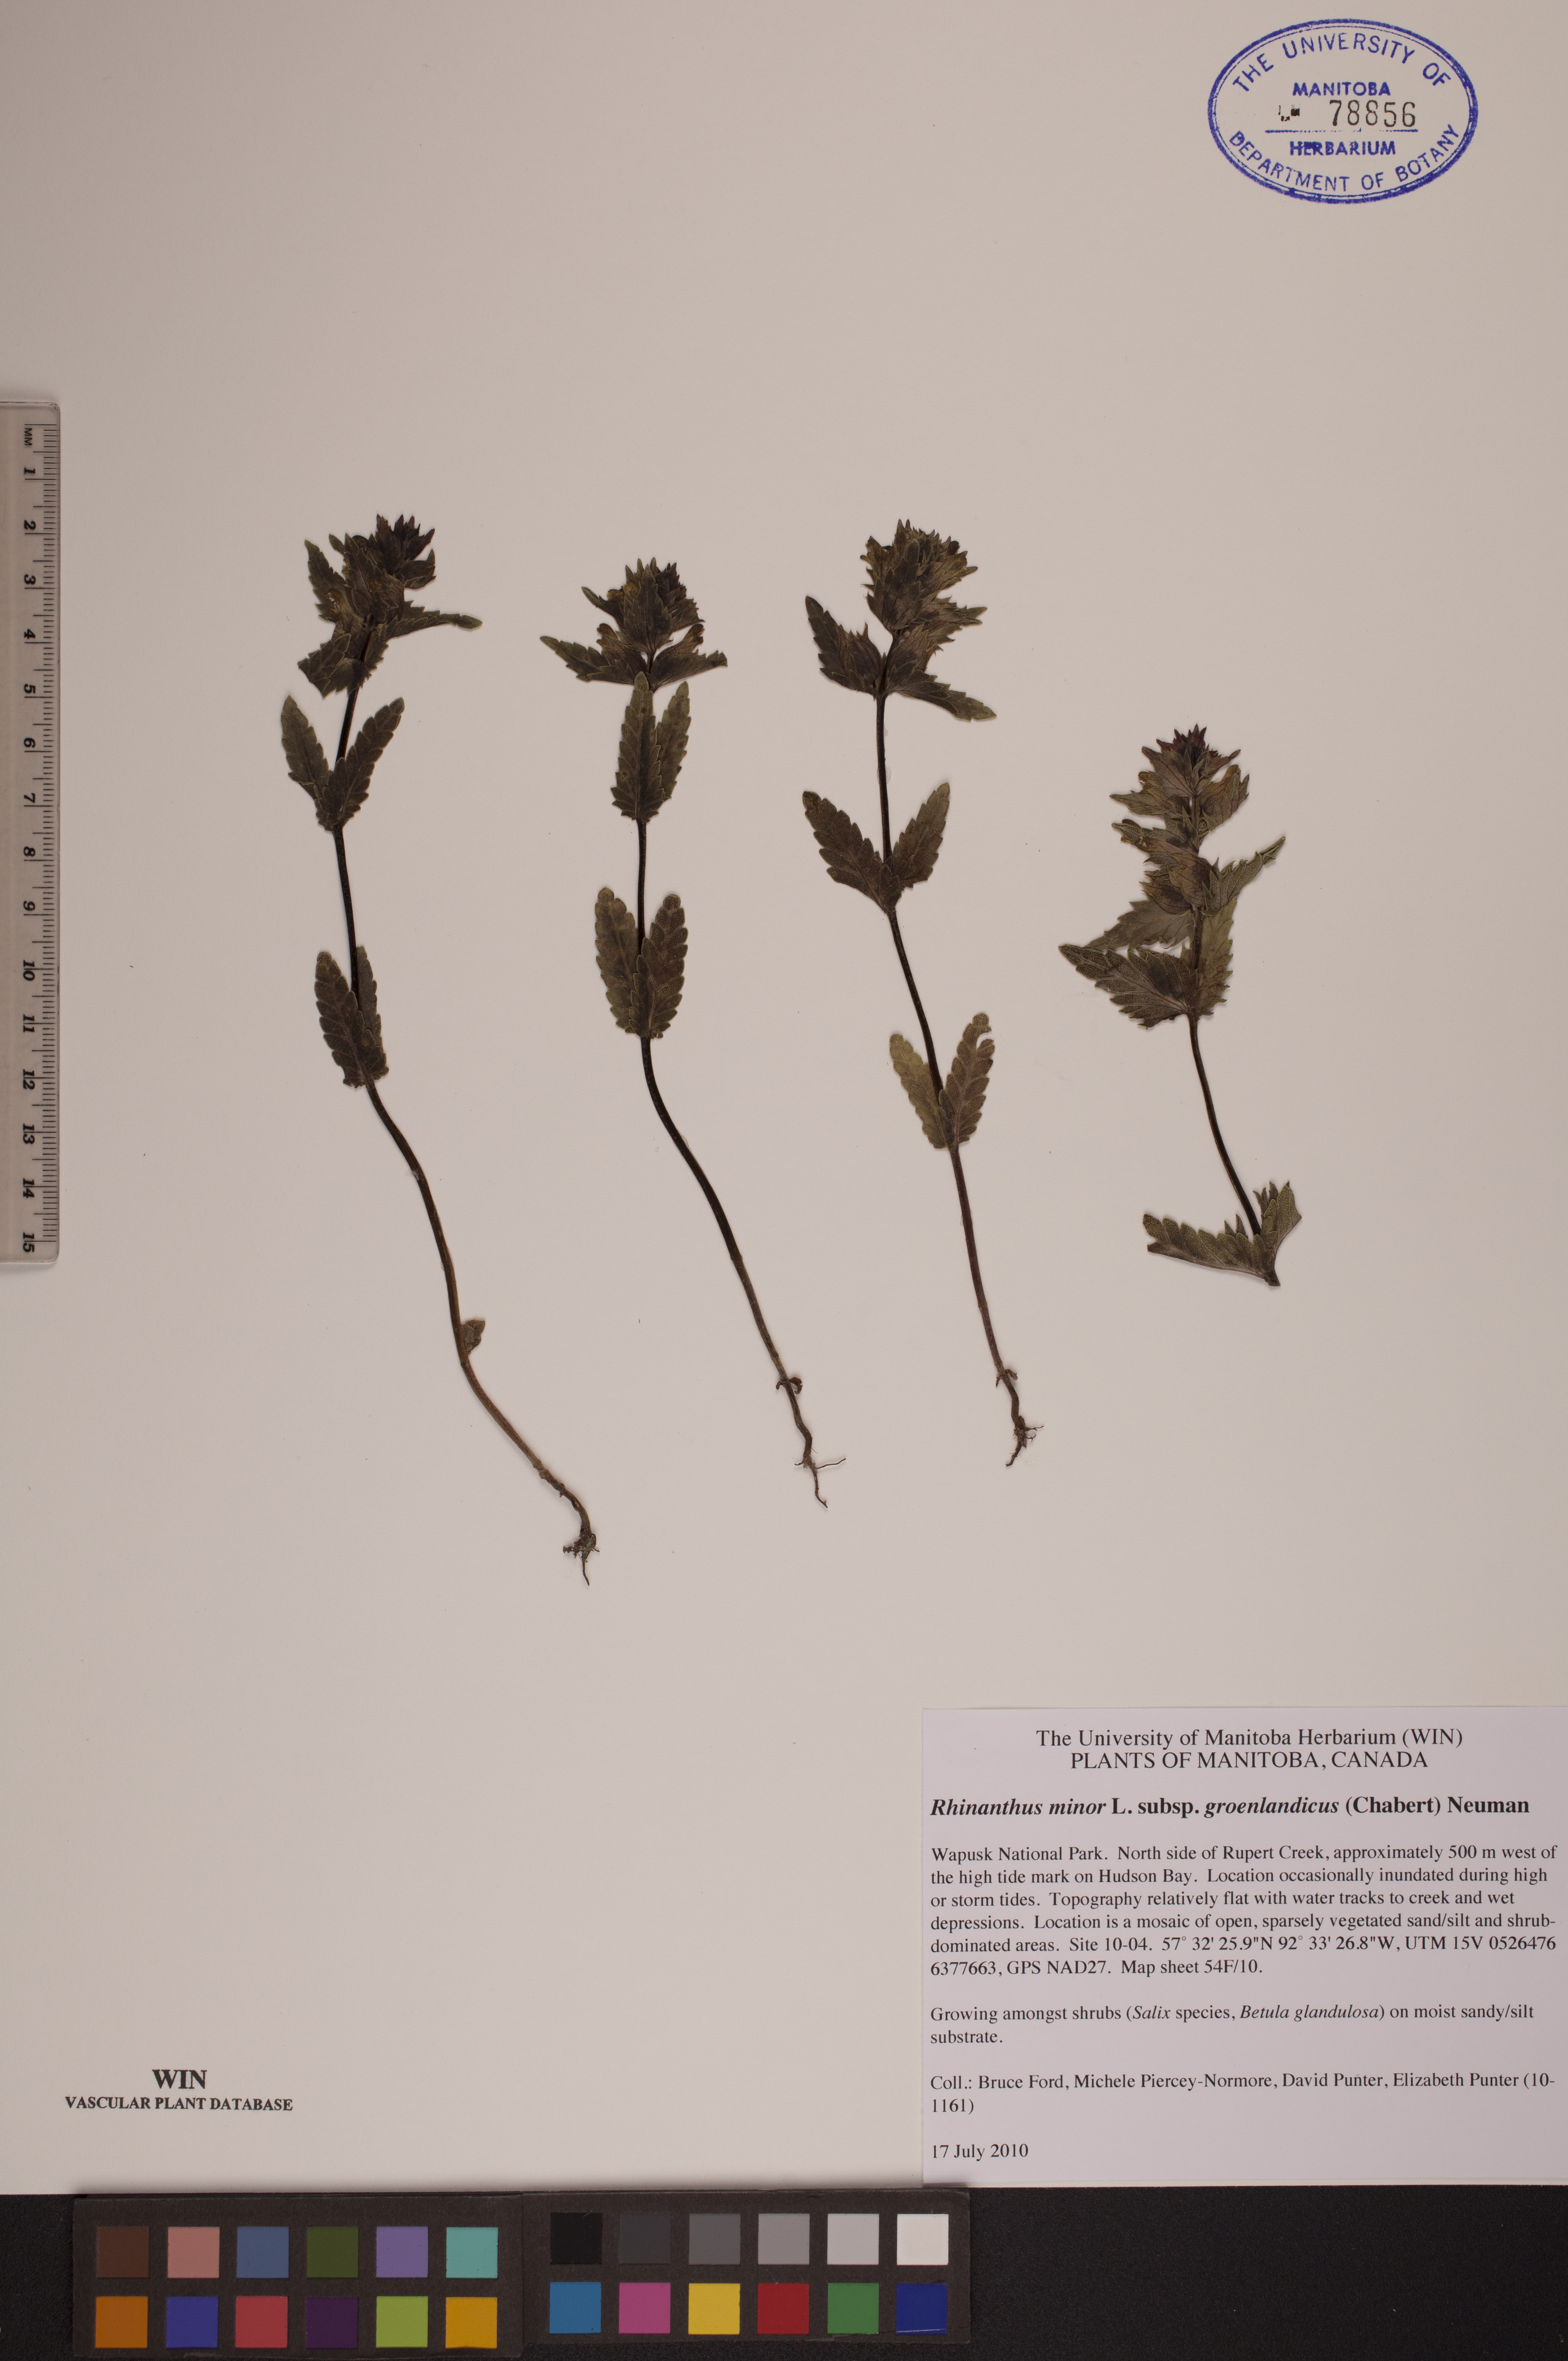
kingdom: Plantae
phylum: Tracheophyta
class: Magnoliopsida
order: Lamiales
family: Orobanchaceae
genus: Rhinanthus
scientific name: Rhinanthus groenlandicus
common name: Little yellow rattle
